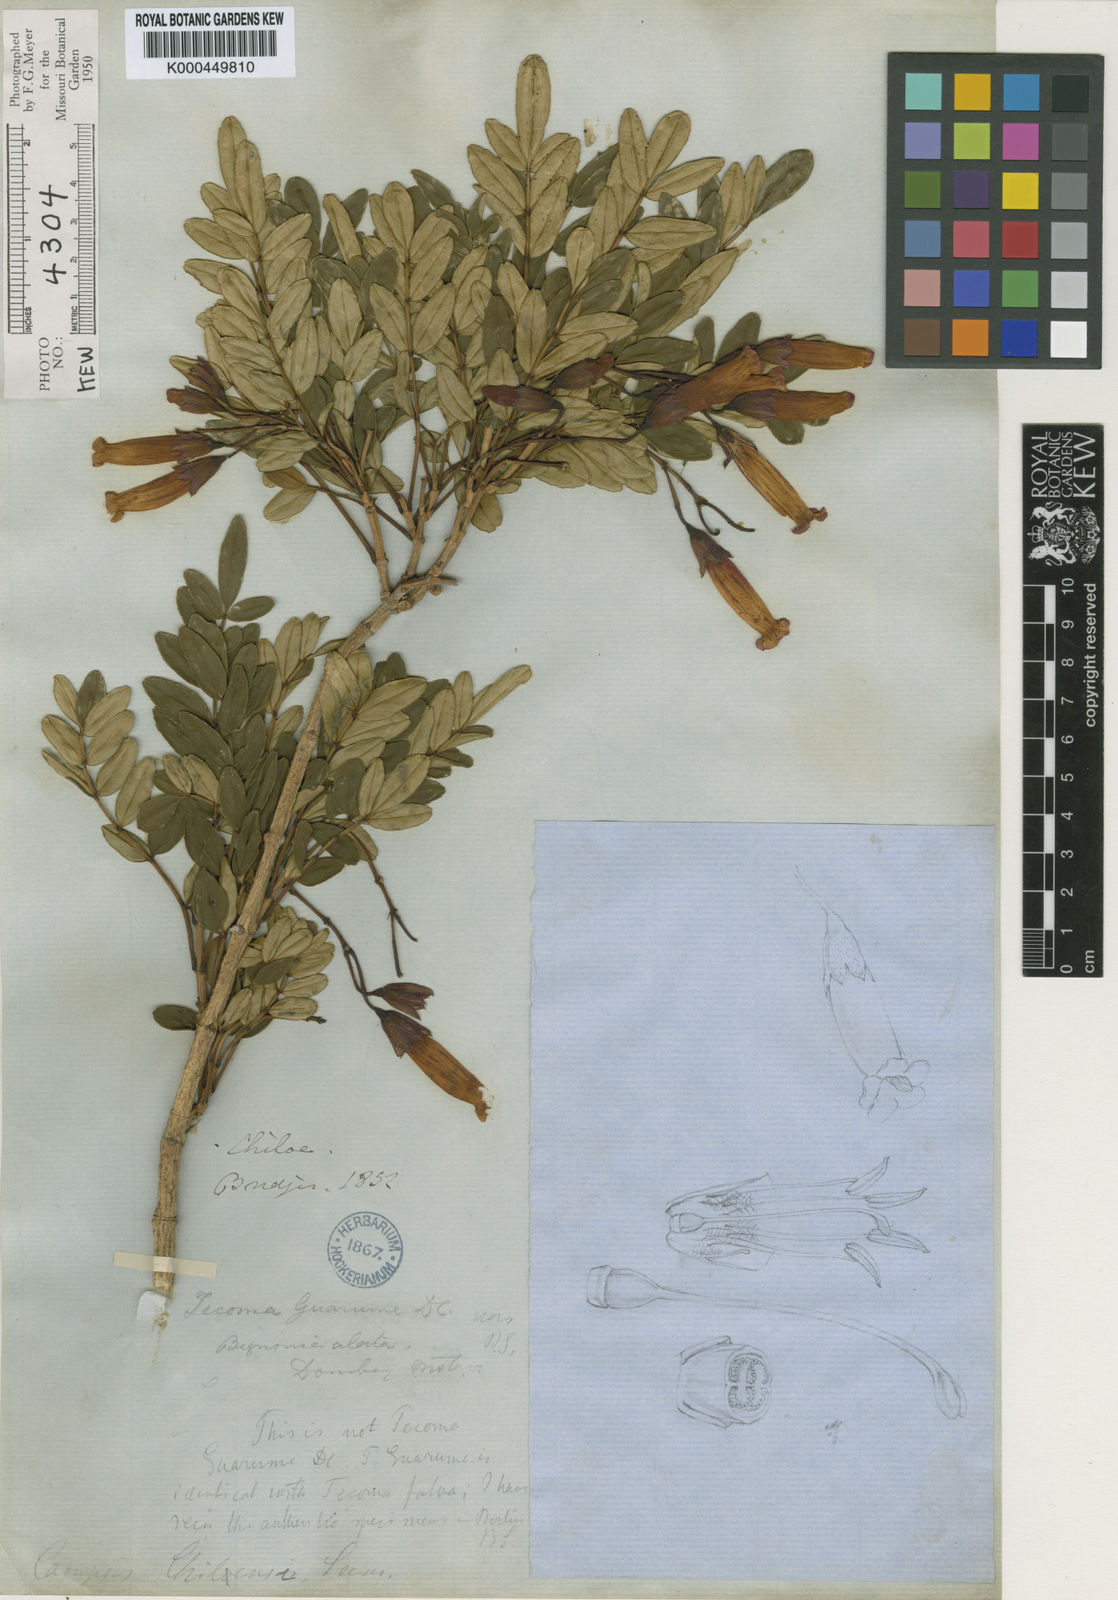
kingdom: Plantae
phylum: Tracheophyta
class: Magnoliopsida
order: Lamiales
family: Bignoniaceae
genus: Campsidium
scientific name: Campsidium valdivianum
